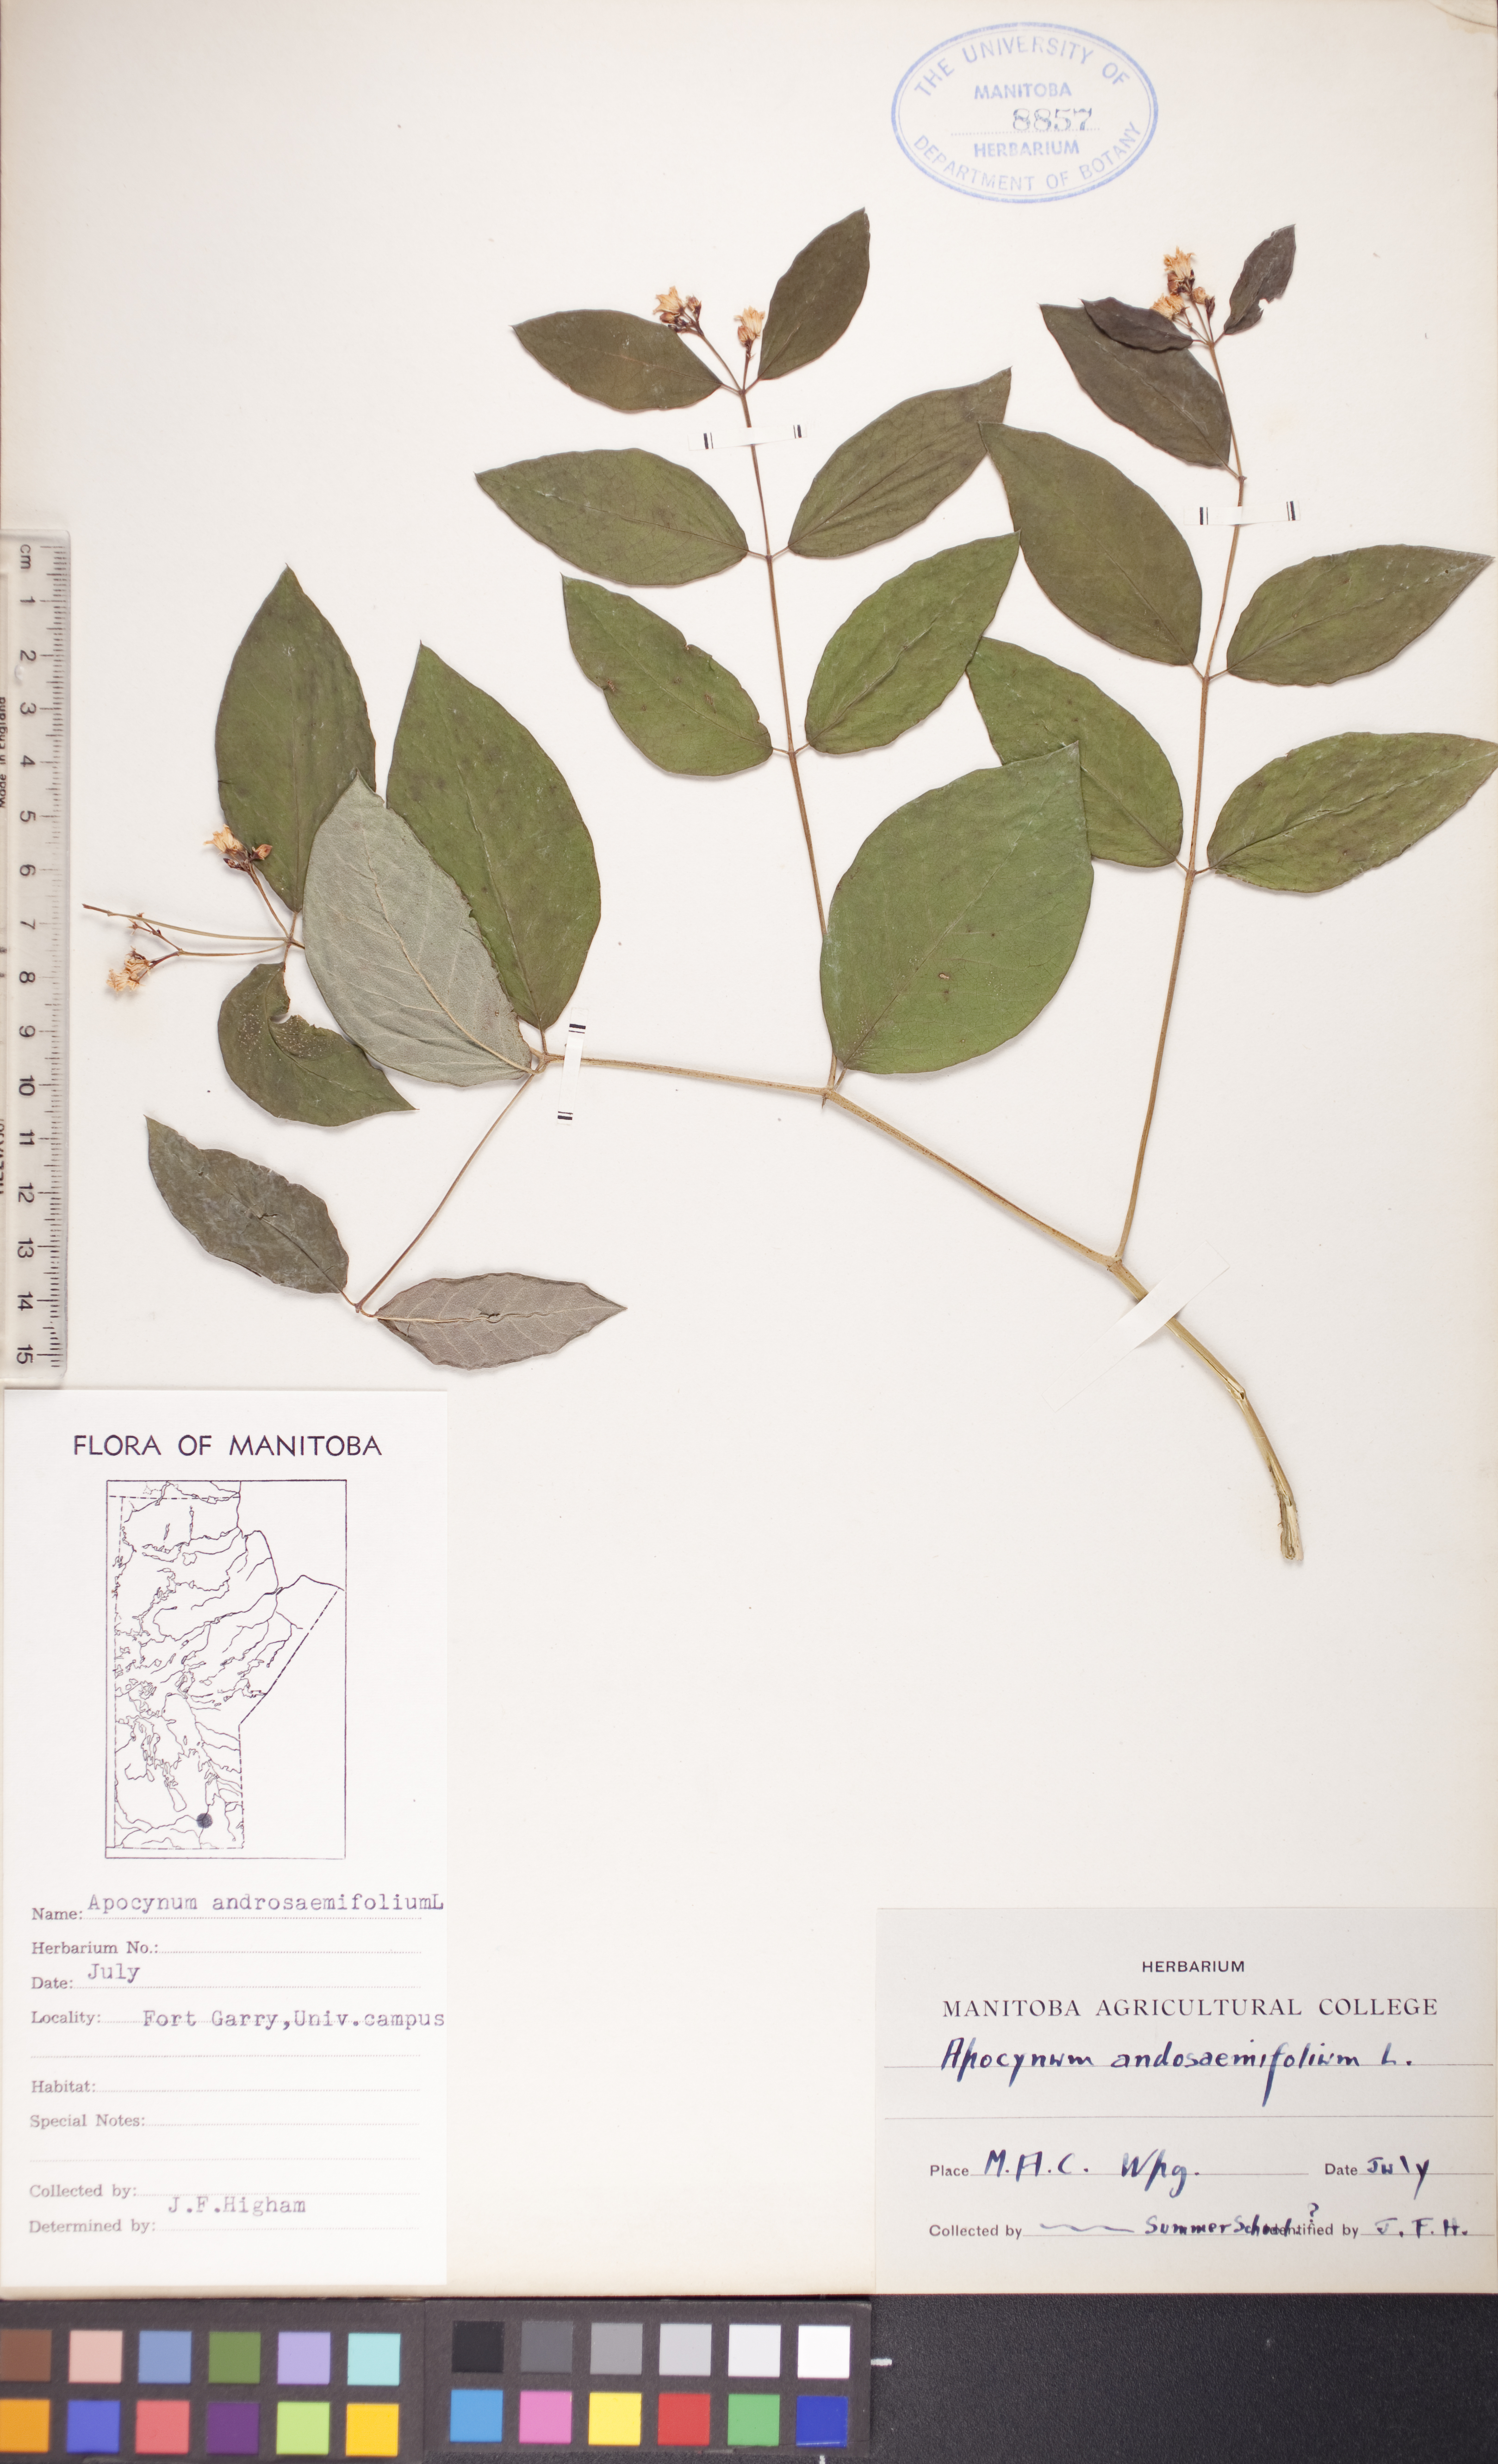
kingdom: Plantae
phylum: Tracheophyta
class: Magnoliopsida
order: Gentianales
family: Apocynaceae
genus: Apocynum
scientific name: Apocynum androsaemifolium
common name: Spreading dogbane
